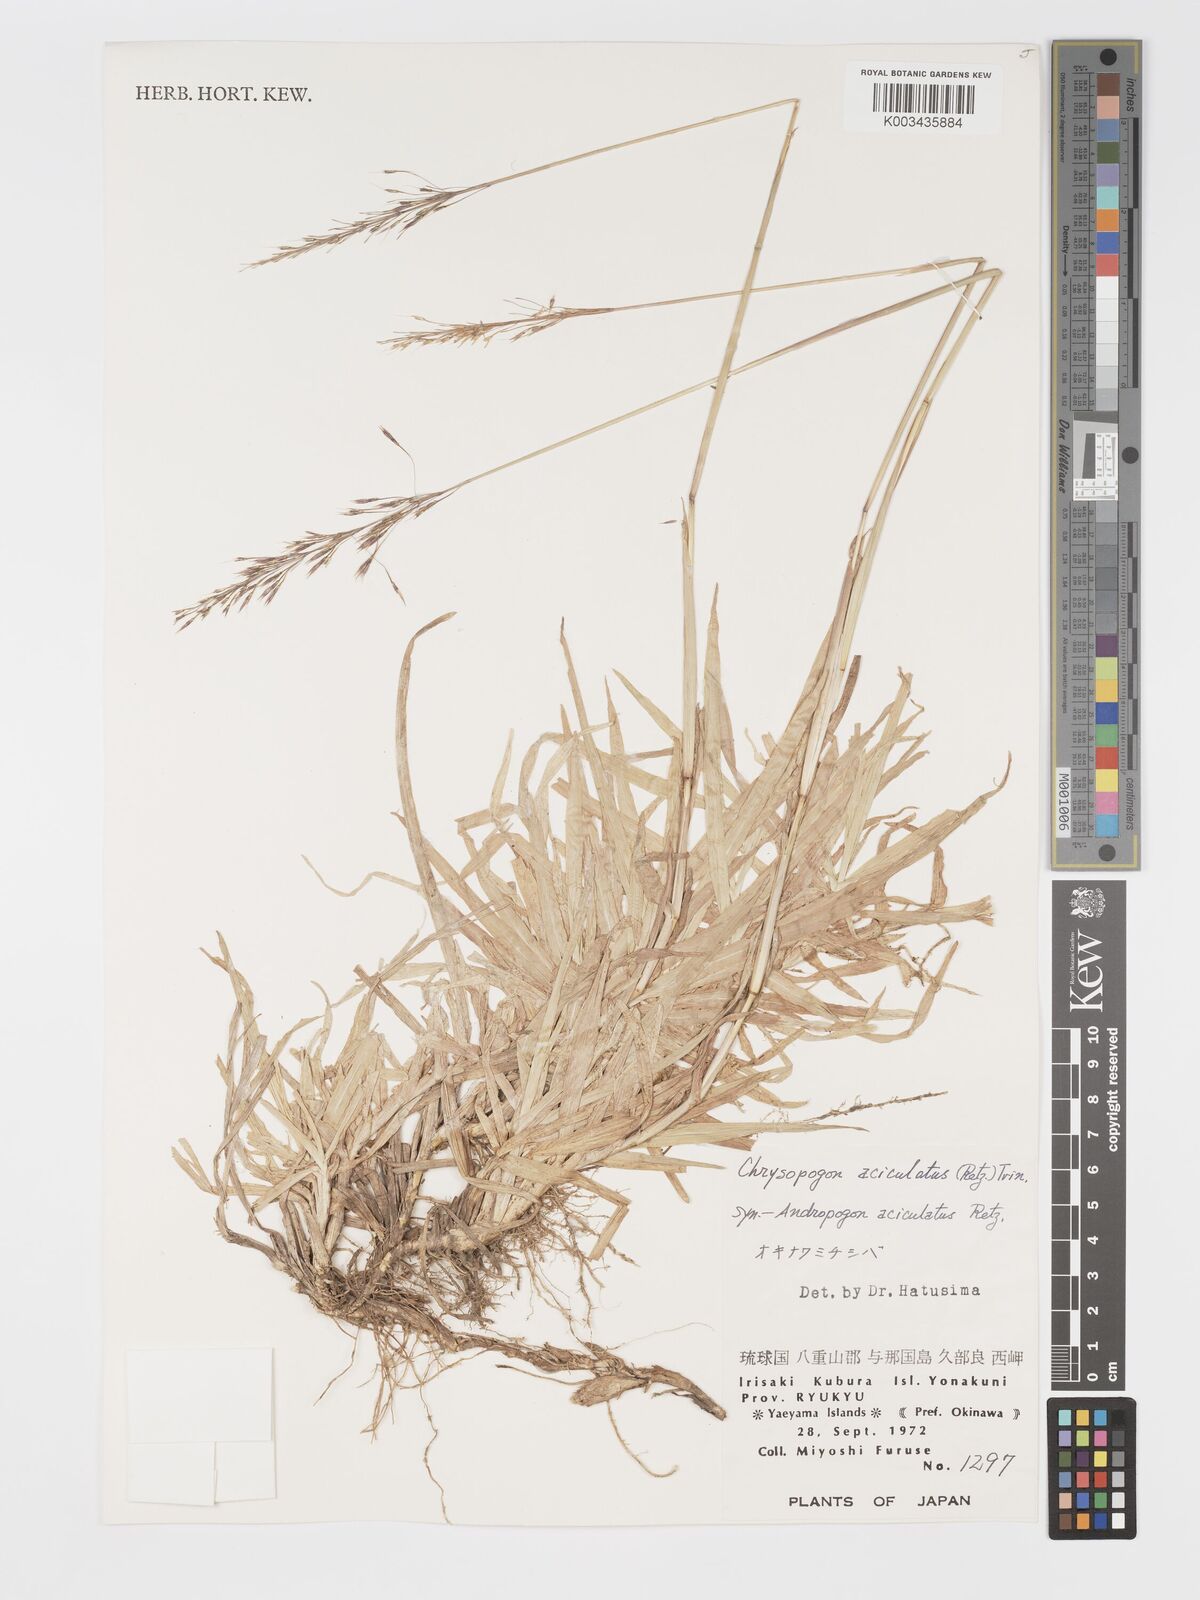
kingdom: Plantae
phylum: Tracheophyta
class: Liliopsida
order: Poales
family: Poaceae
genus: Chrysopogon
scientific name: Chrysopogon aciculatus
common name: Pilipiliula
